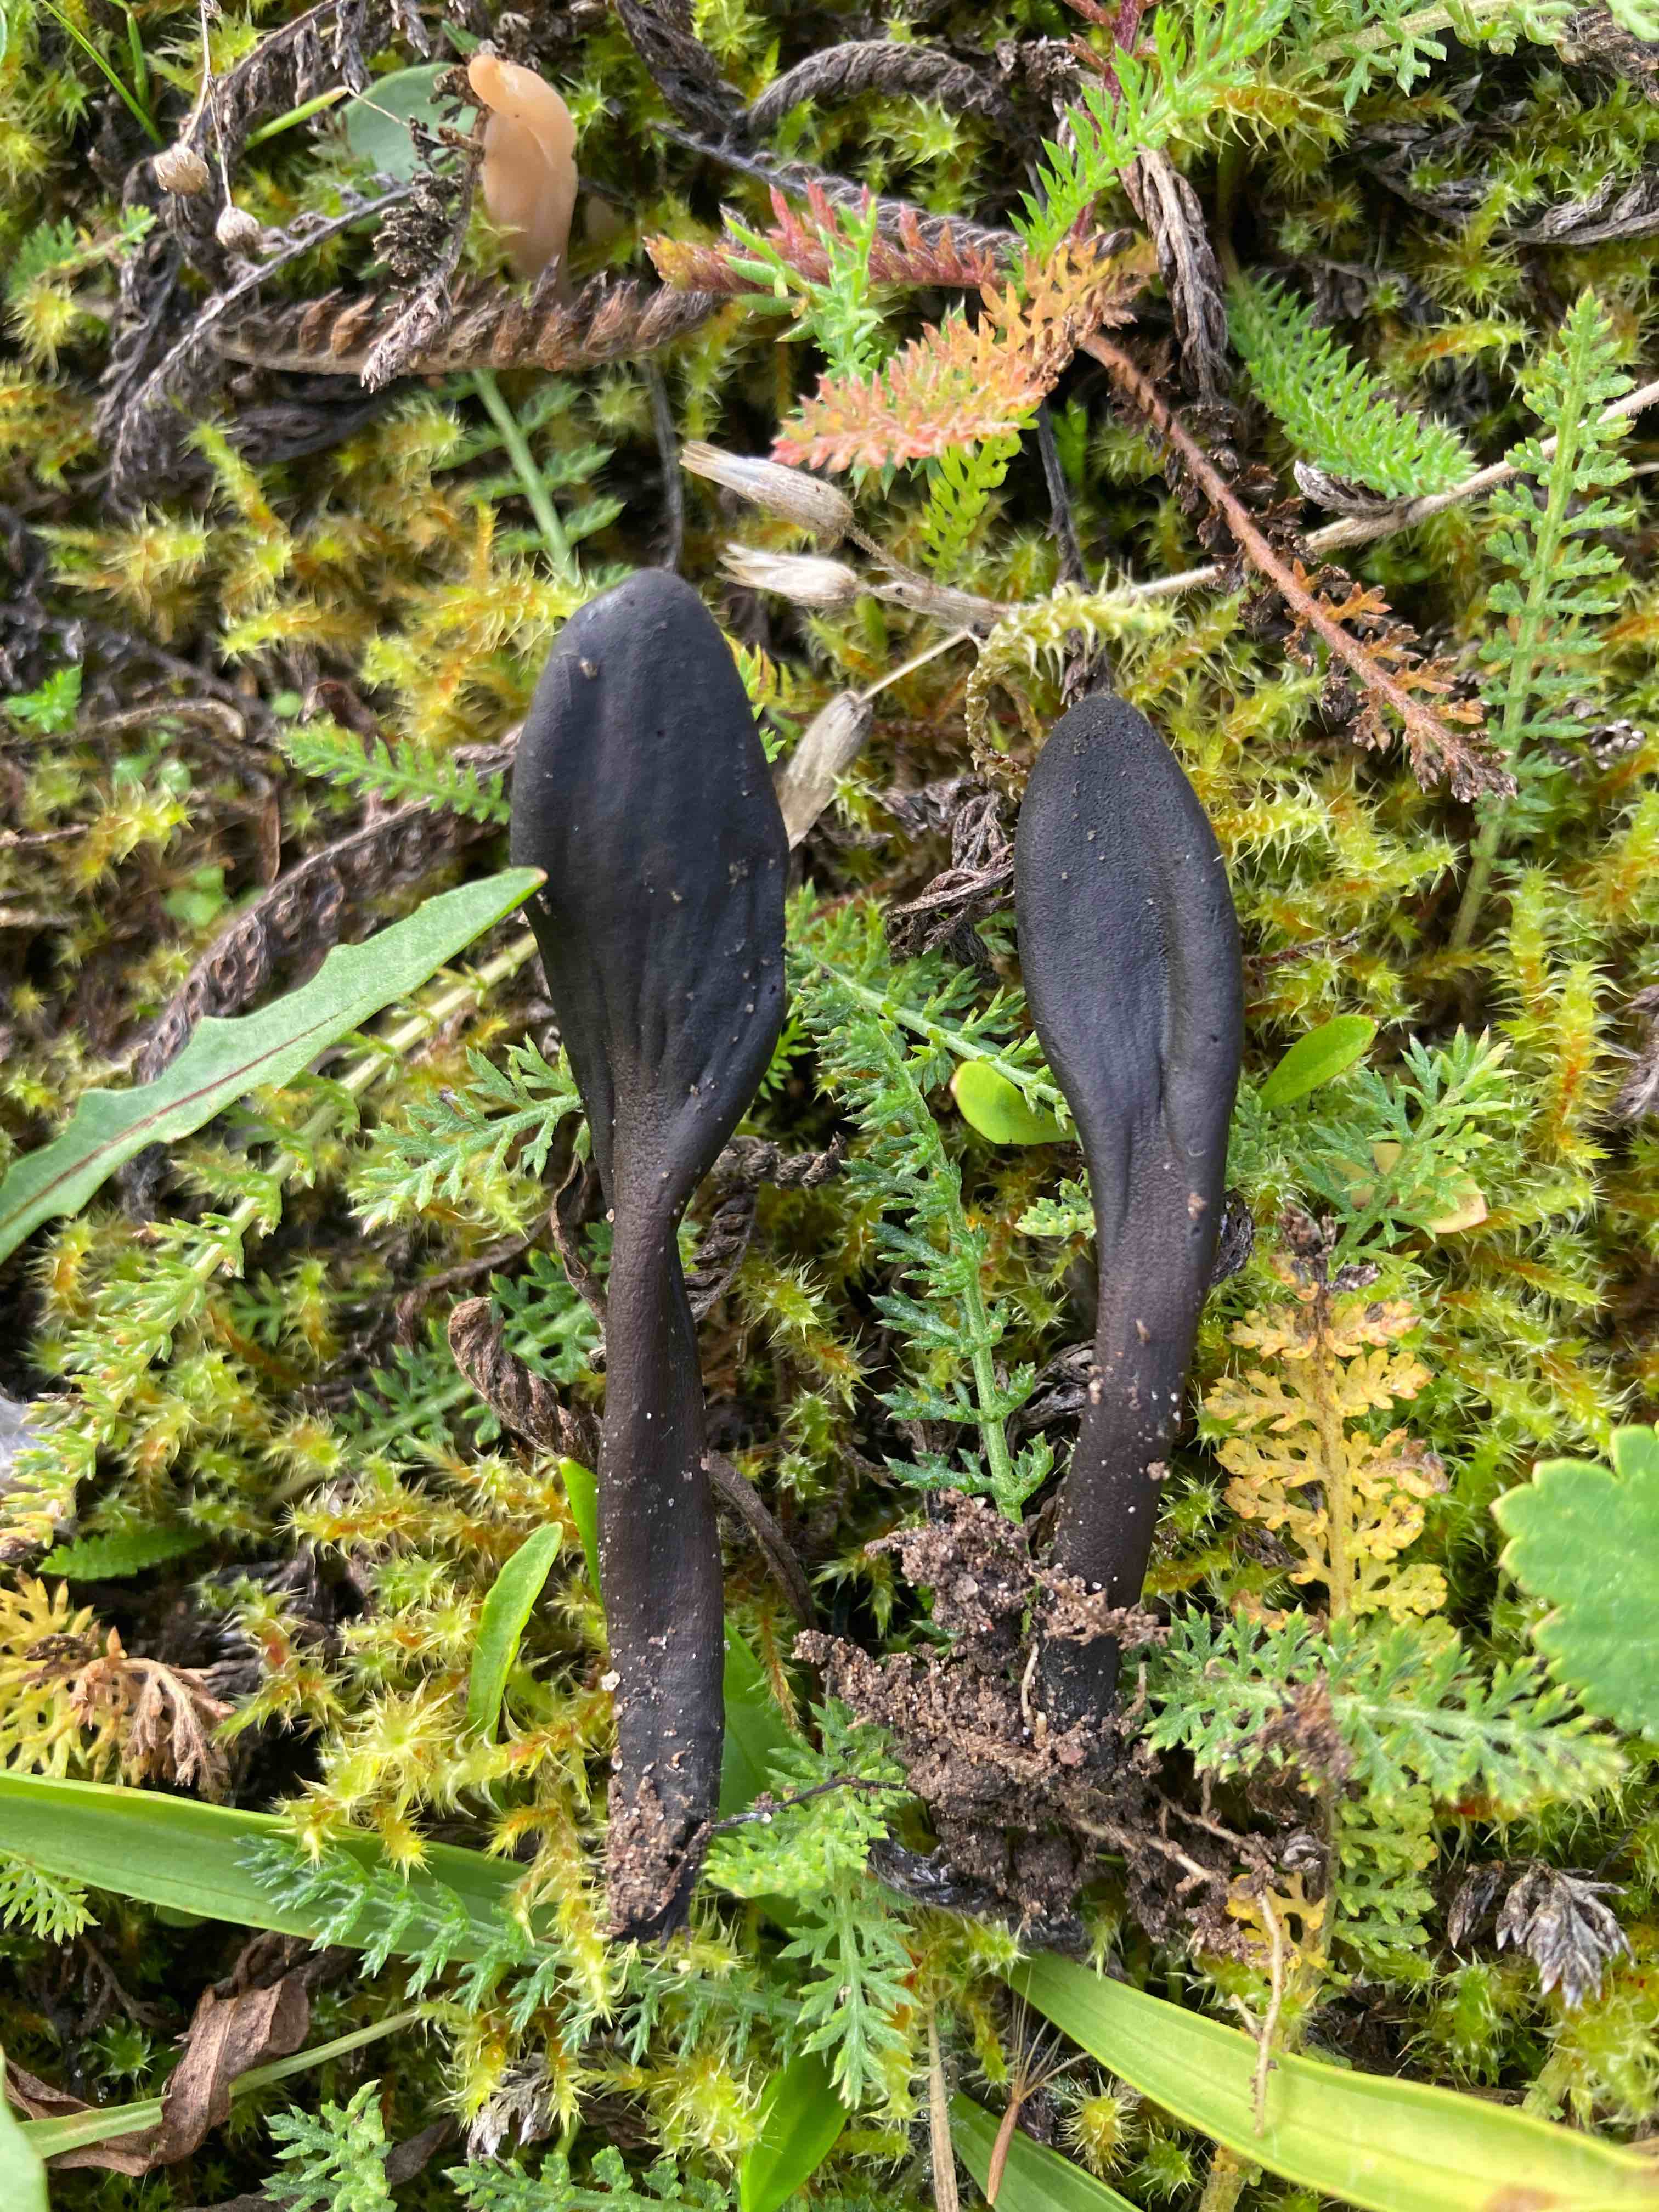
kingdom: Fungi
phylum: Ascomycota
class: Geoglossomycetes
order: Geoglossales
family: Geoglossaceae
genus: Geoglossum
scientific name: Geoglossum umbratile
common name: slank jordtunge
